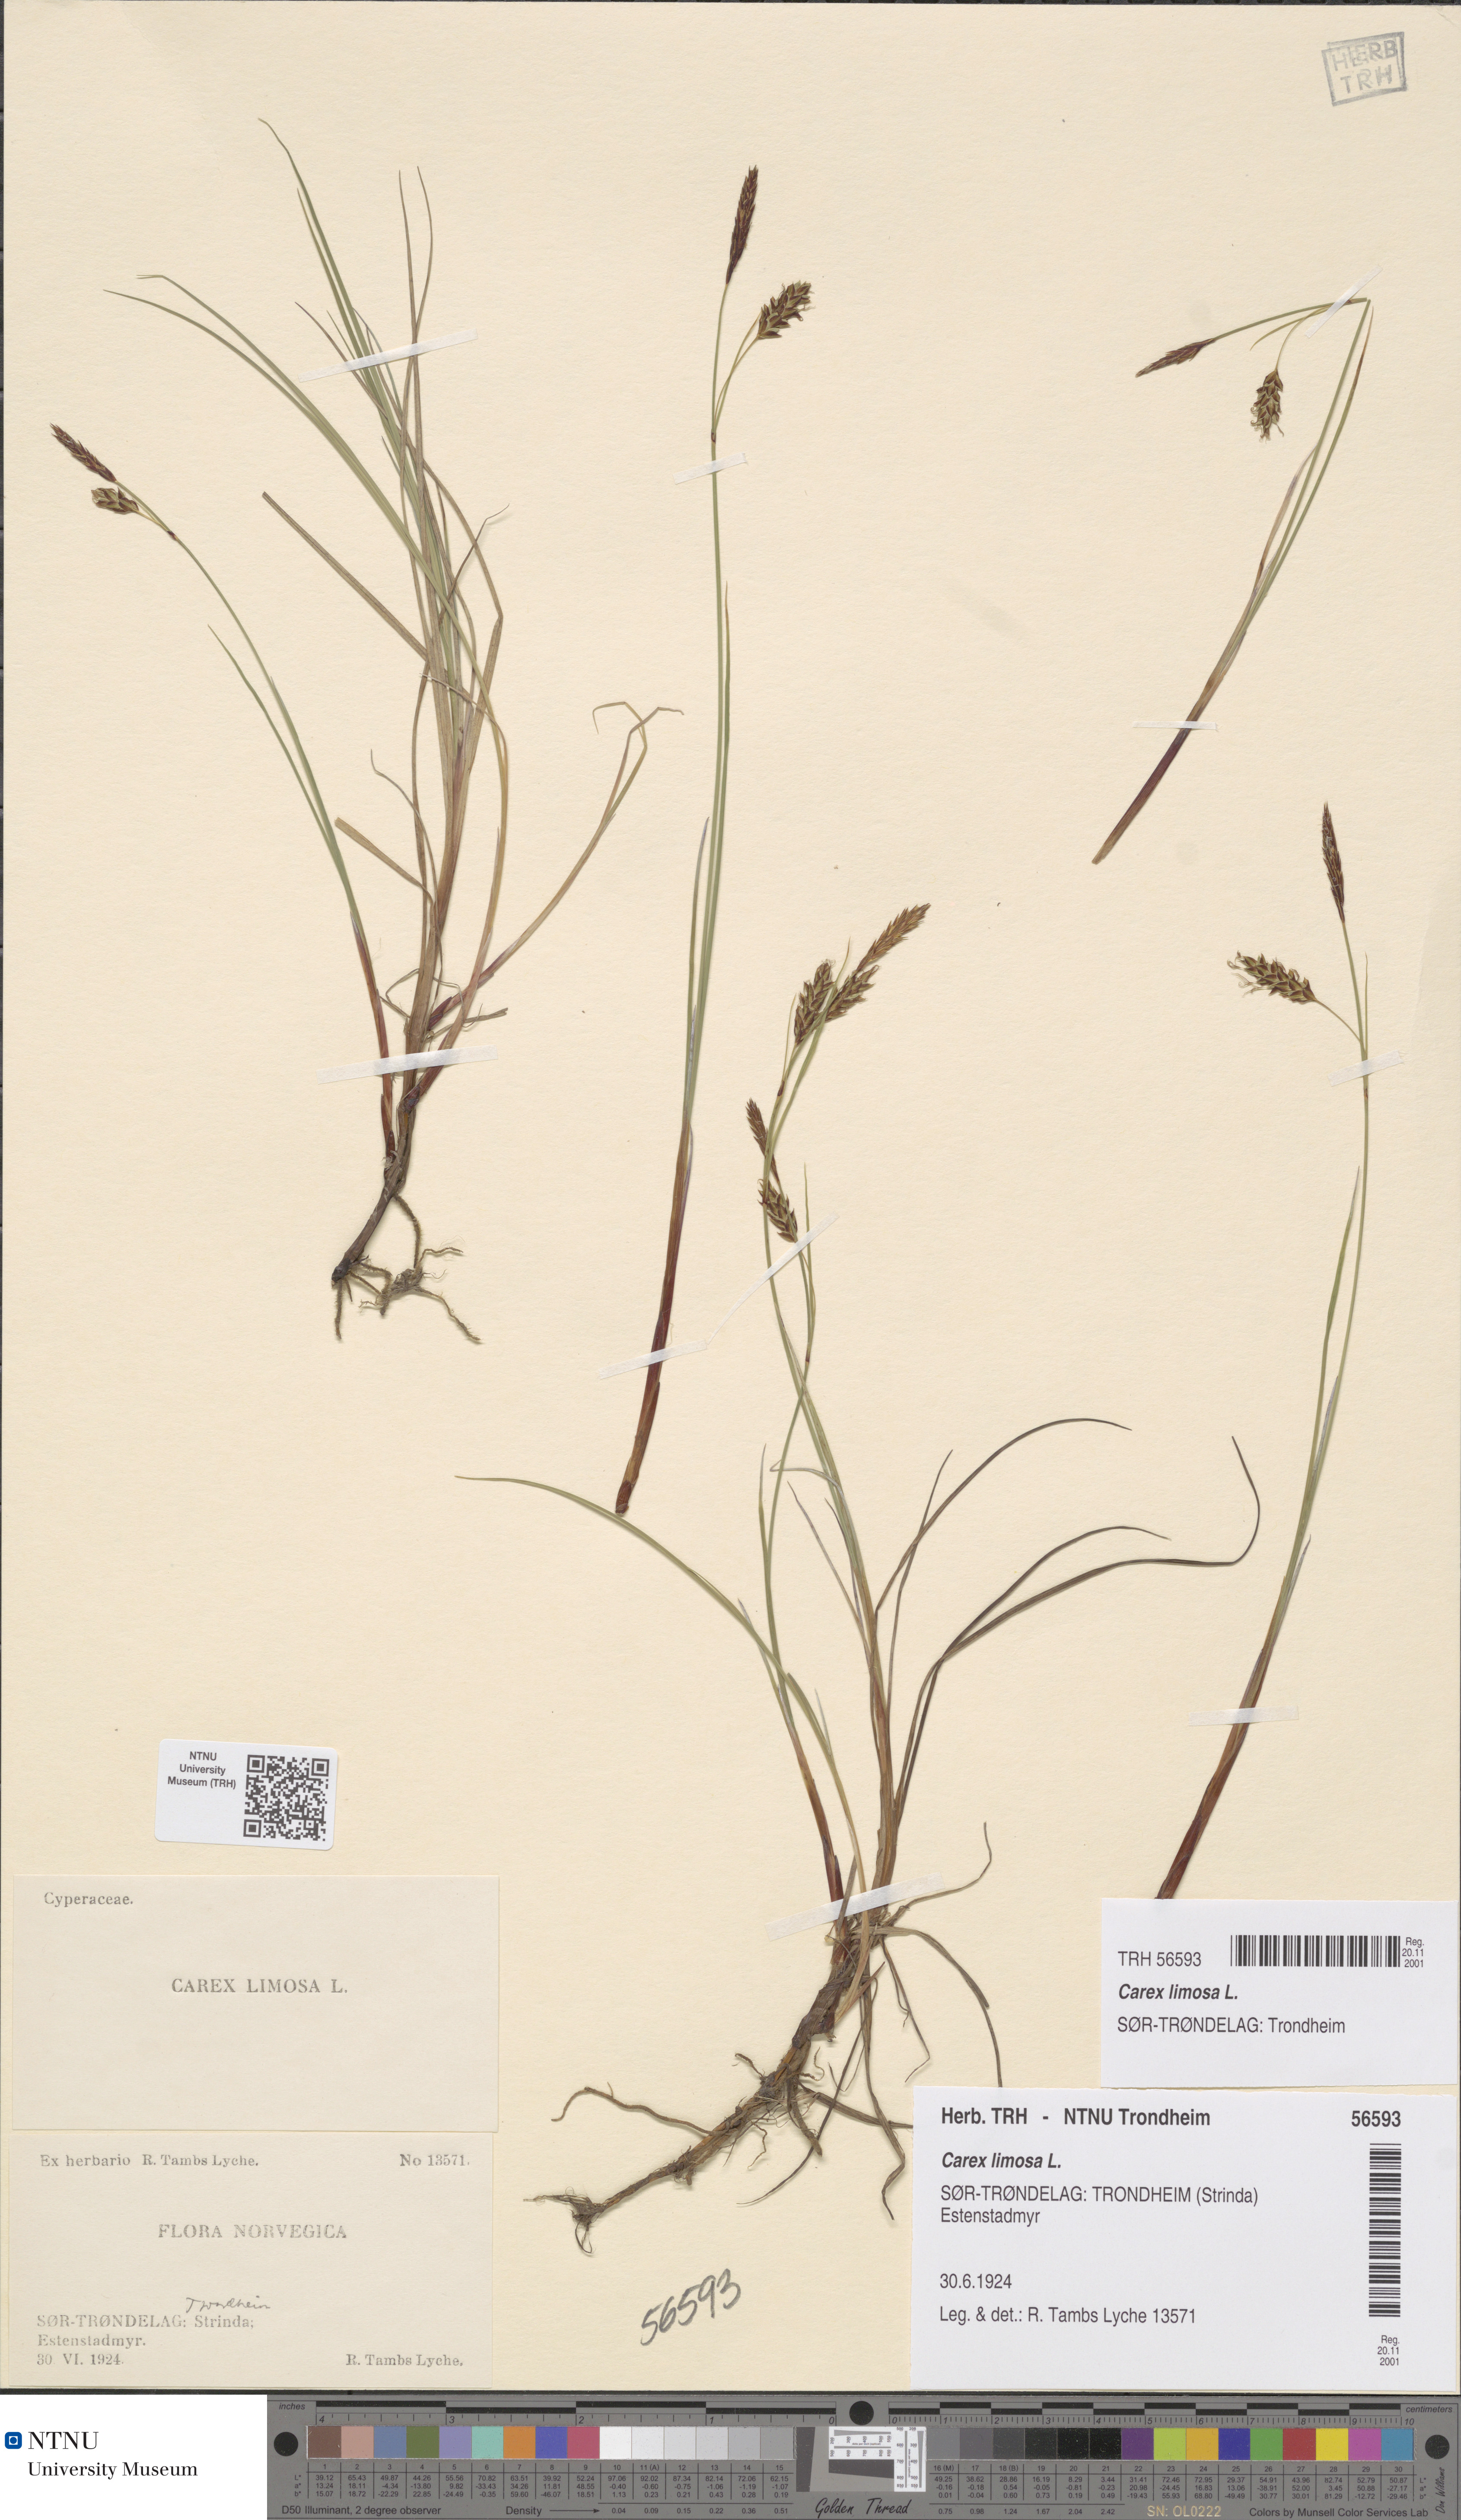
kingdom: Plantae
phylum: Tracheophyta
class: Liliopsida
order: Poales
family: Cyperaceae
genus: Carex
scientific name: Carex limosa
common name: Bog sedge
